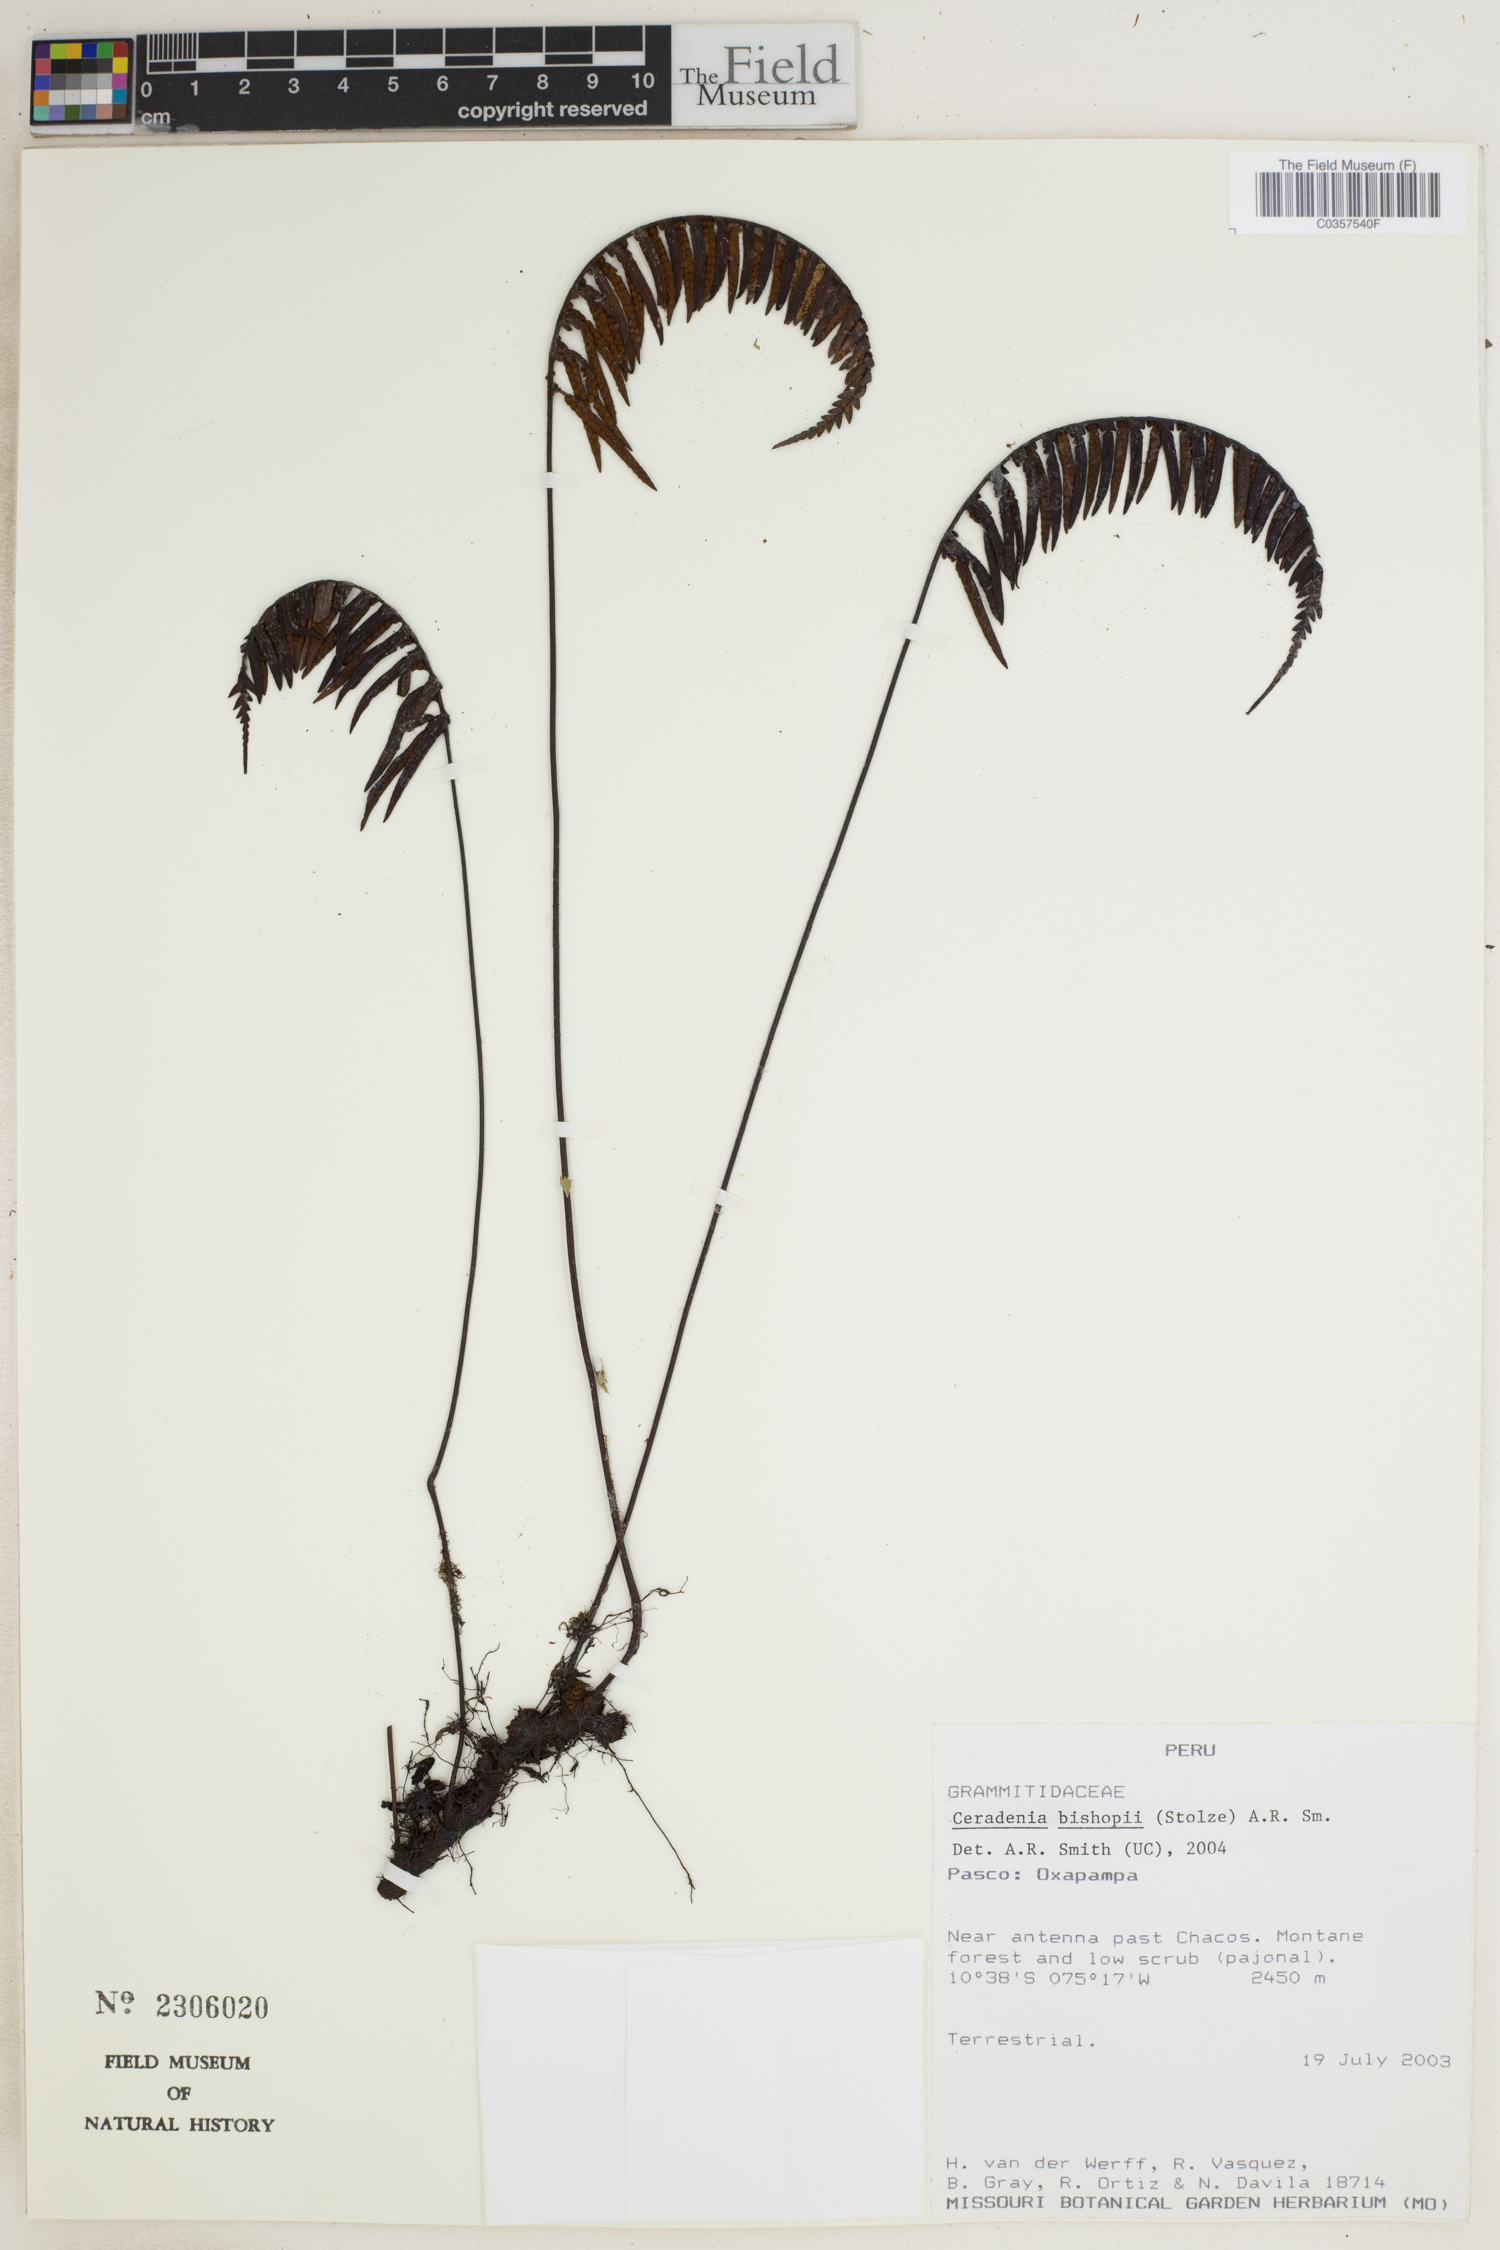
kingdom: Plantae
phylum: Tracheophyta
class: Polypodiopsida
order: Polypodiales
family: Polypodiaceae
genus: Ceradenia
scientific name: Ceradenia bishopii
